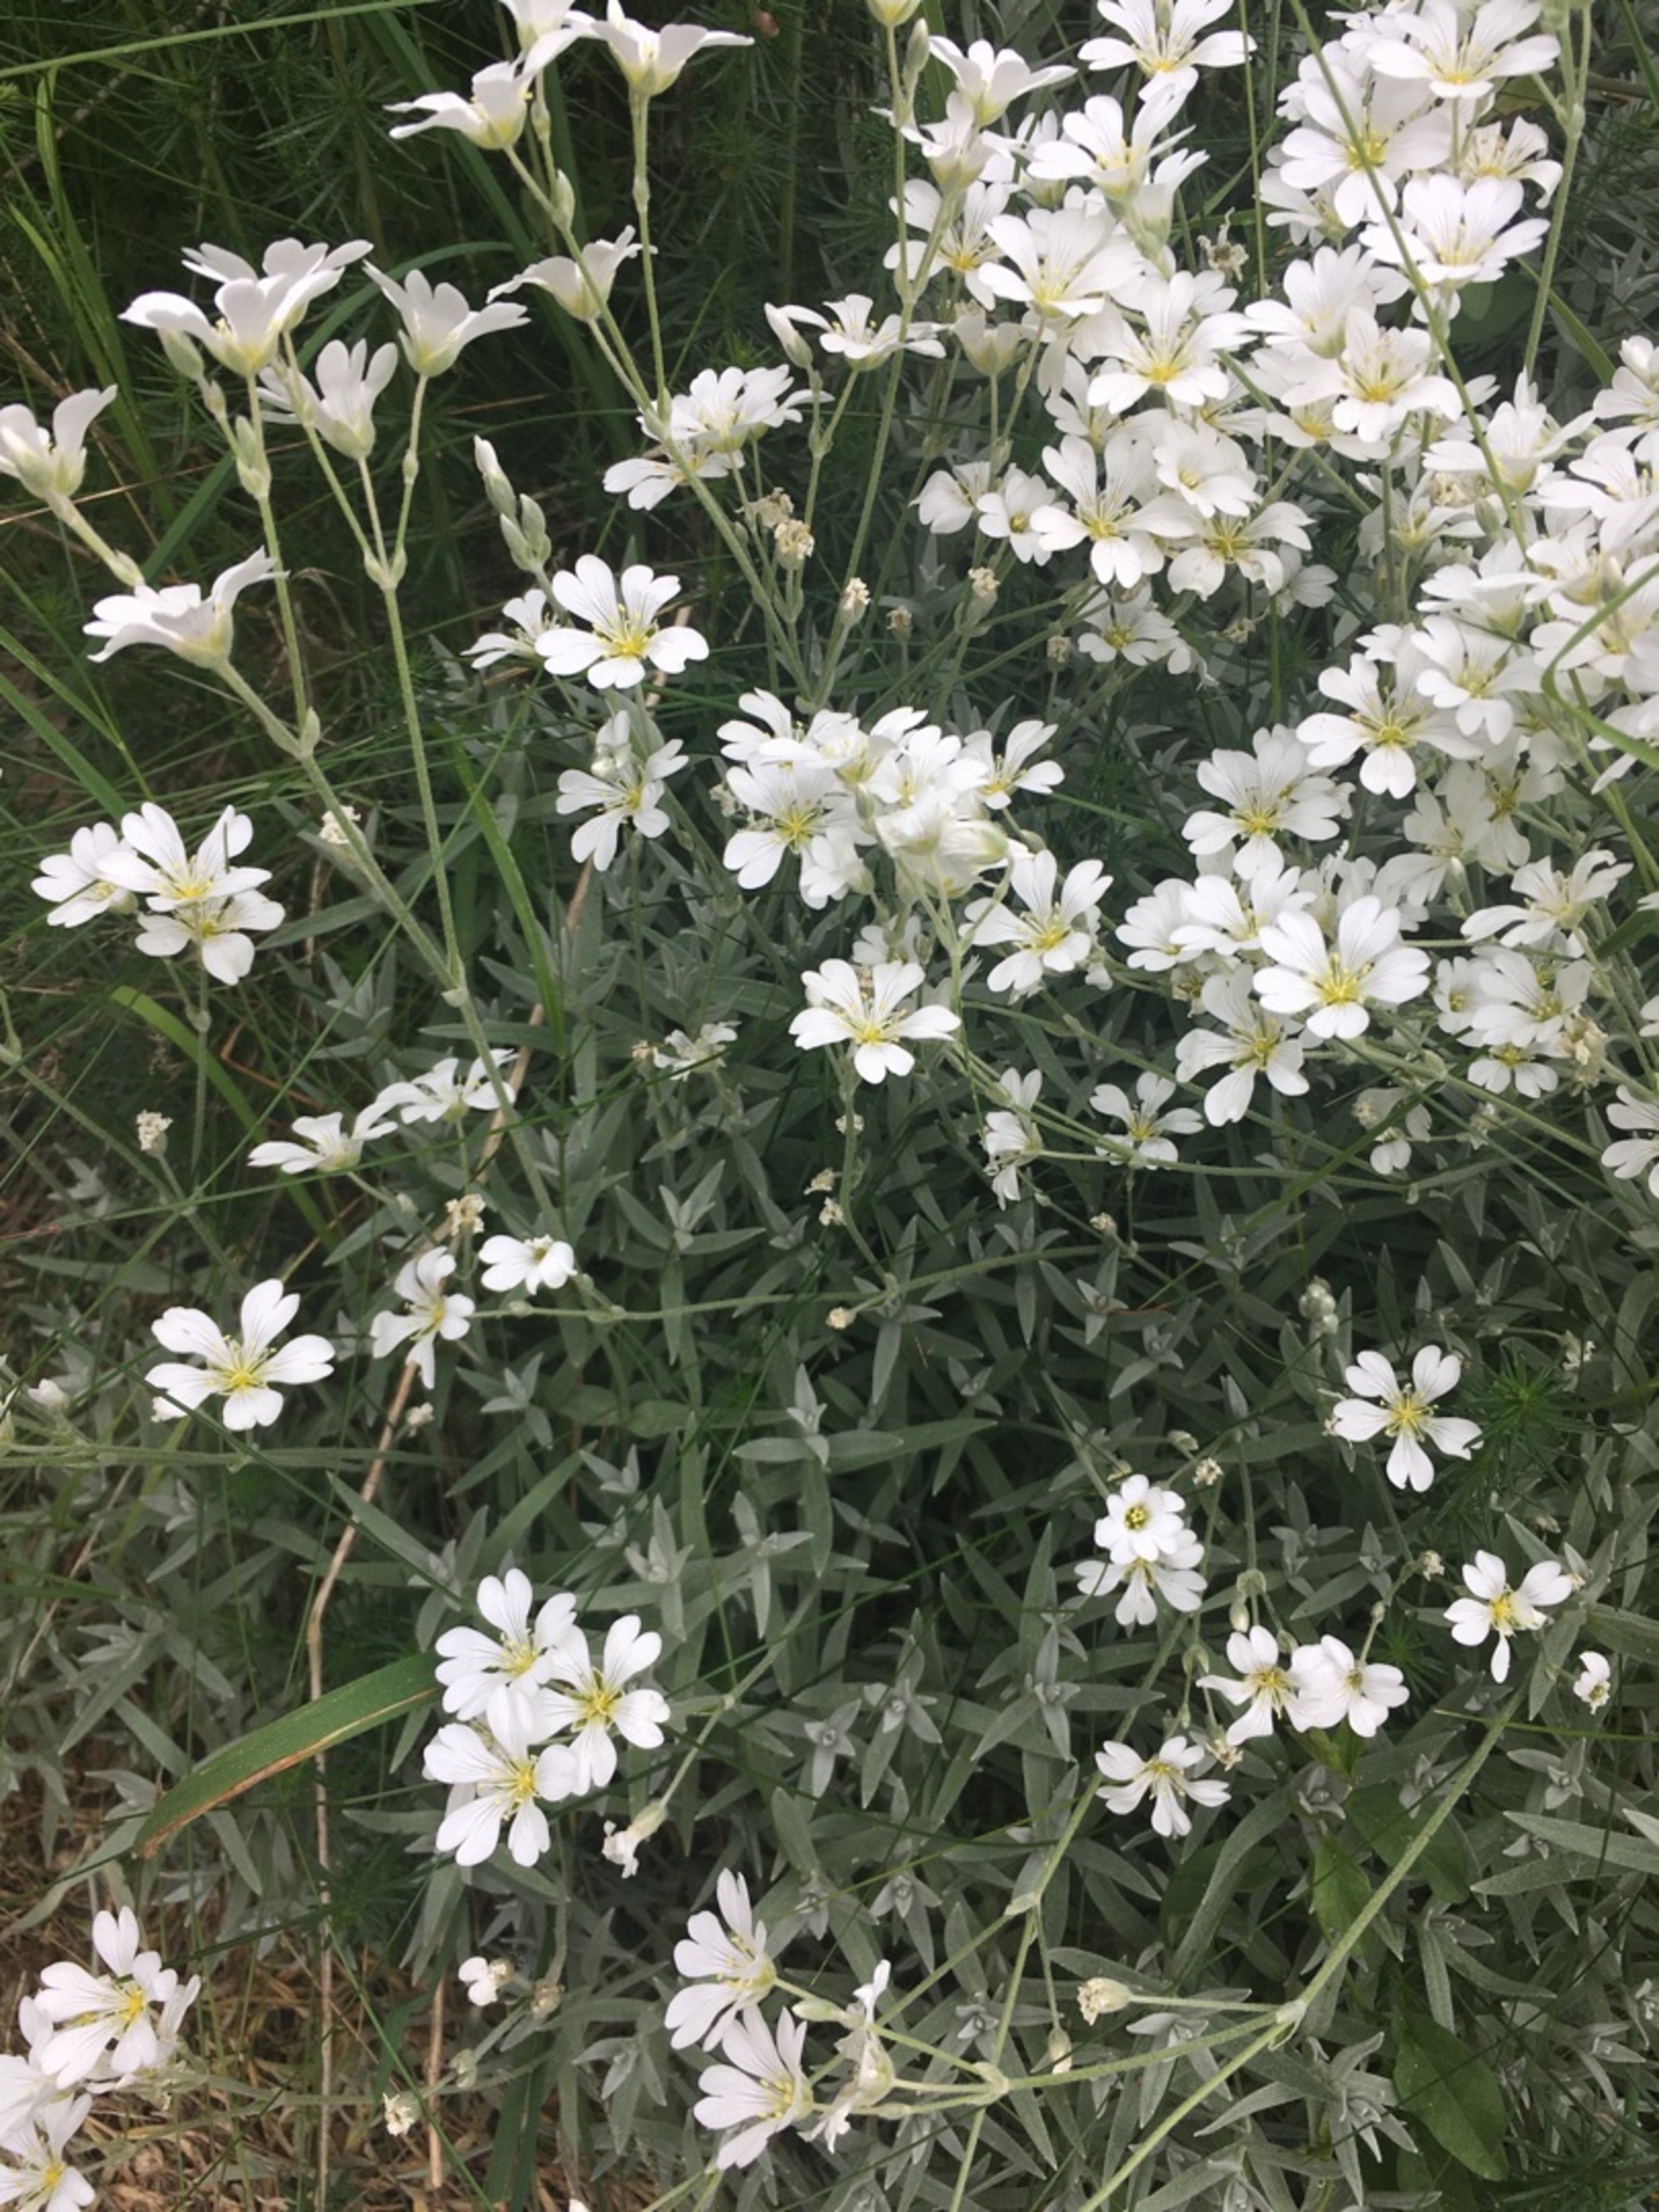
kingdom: Plantae
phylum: Tracheophyta
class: Magnoliopsida
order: Caryophyllales
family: Caryophyllaceae
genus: Cerastium
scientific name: Cerastium tomentosum
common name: Filtet hønsetarm
